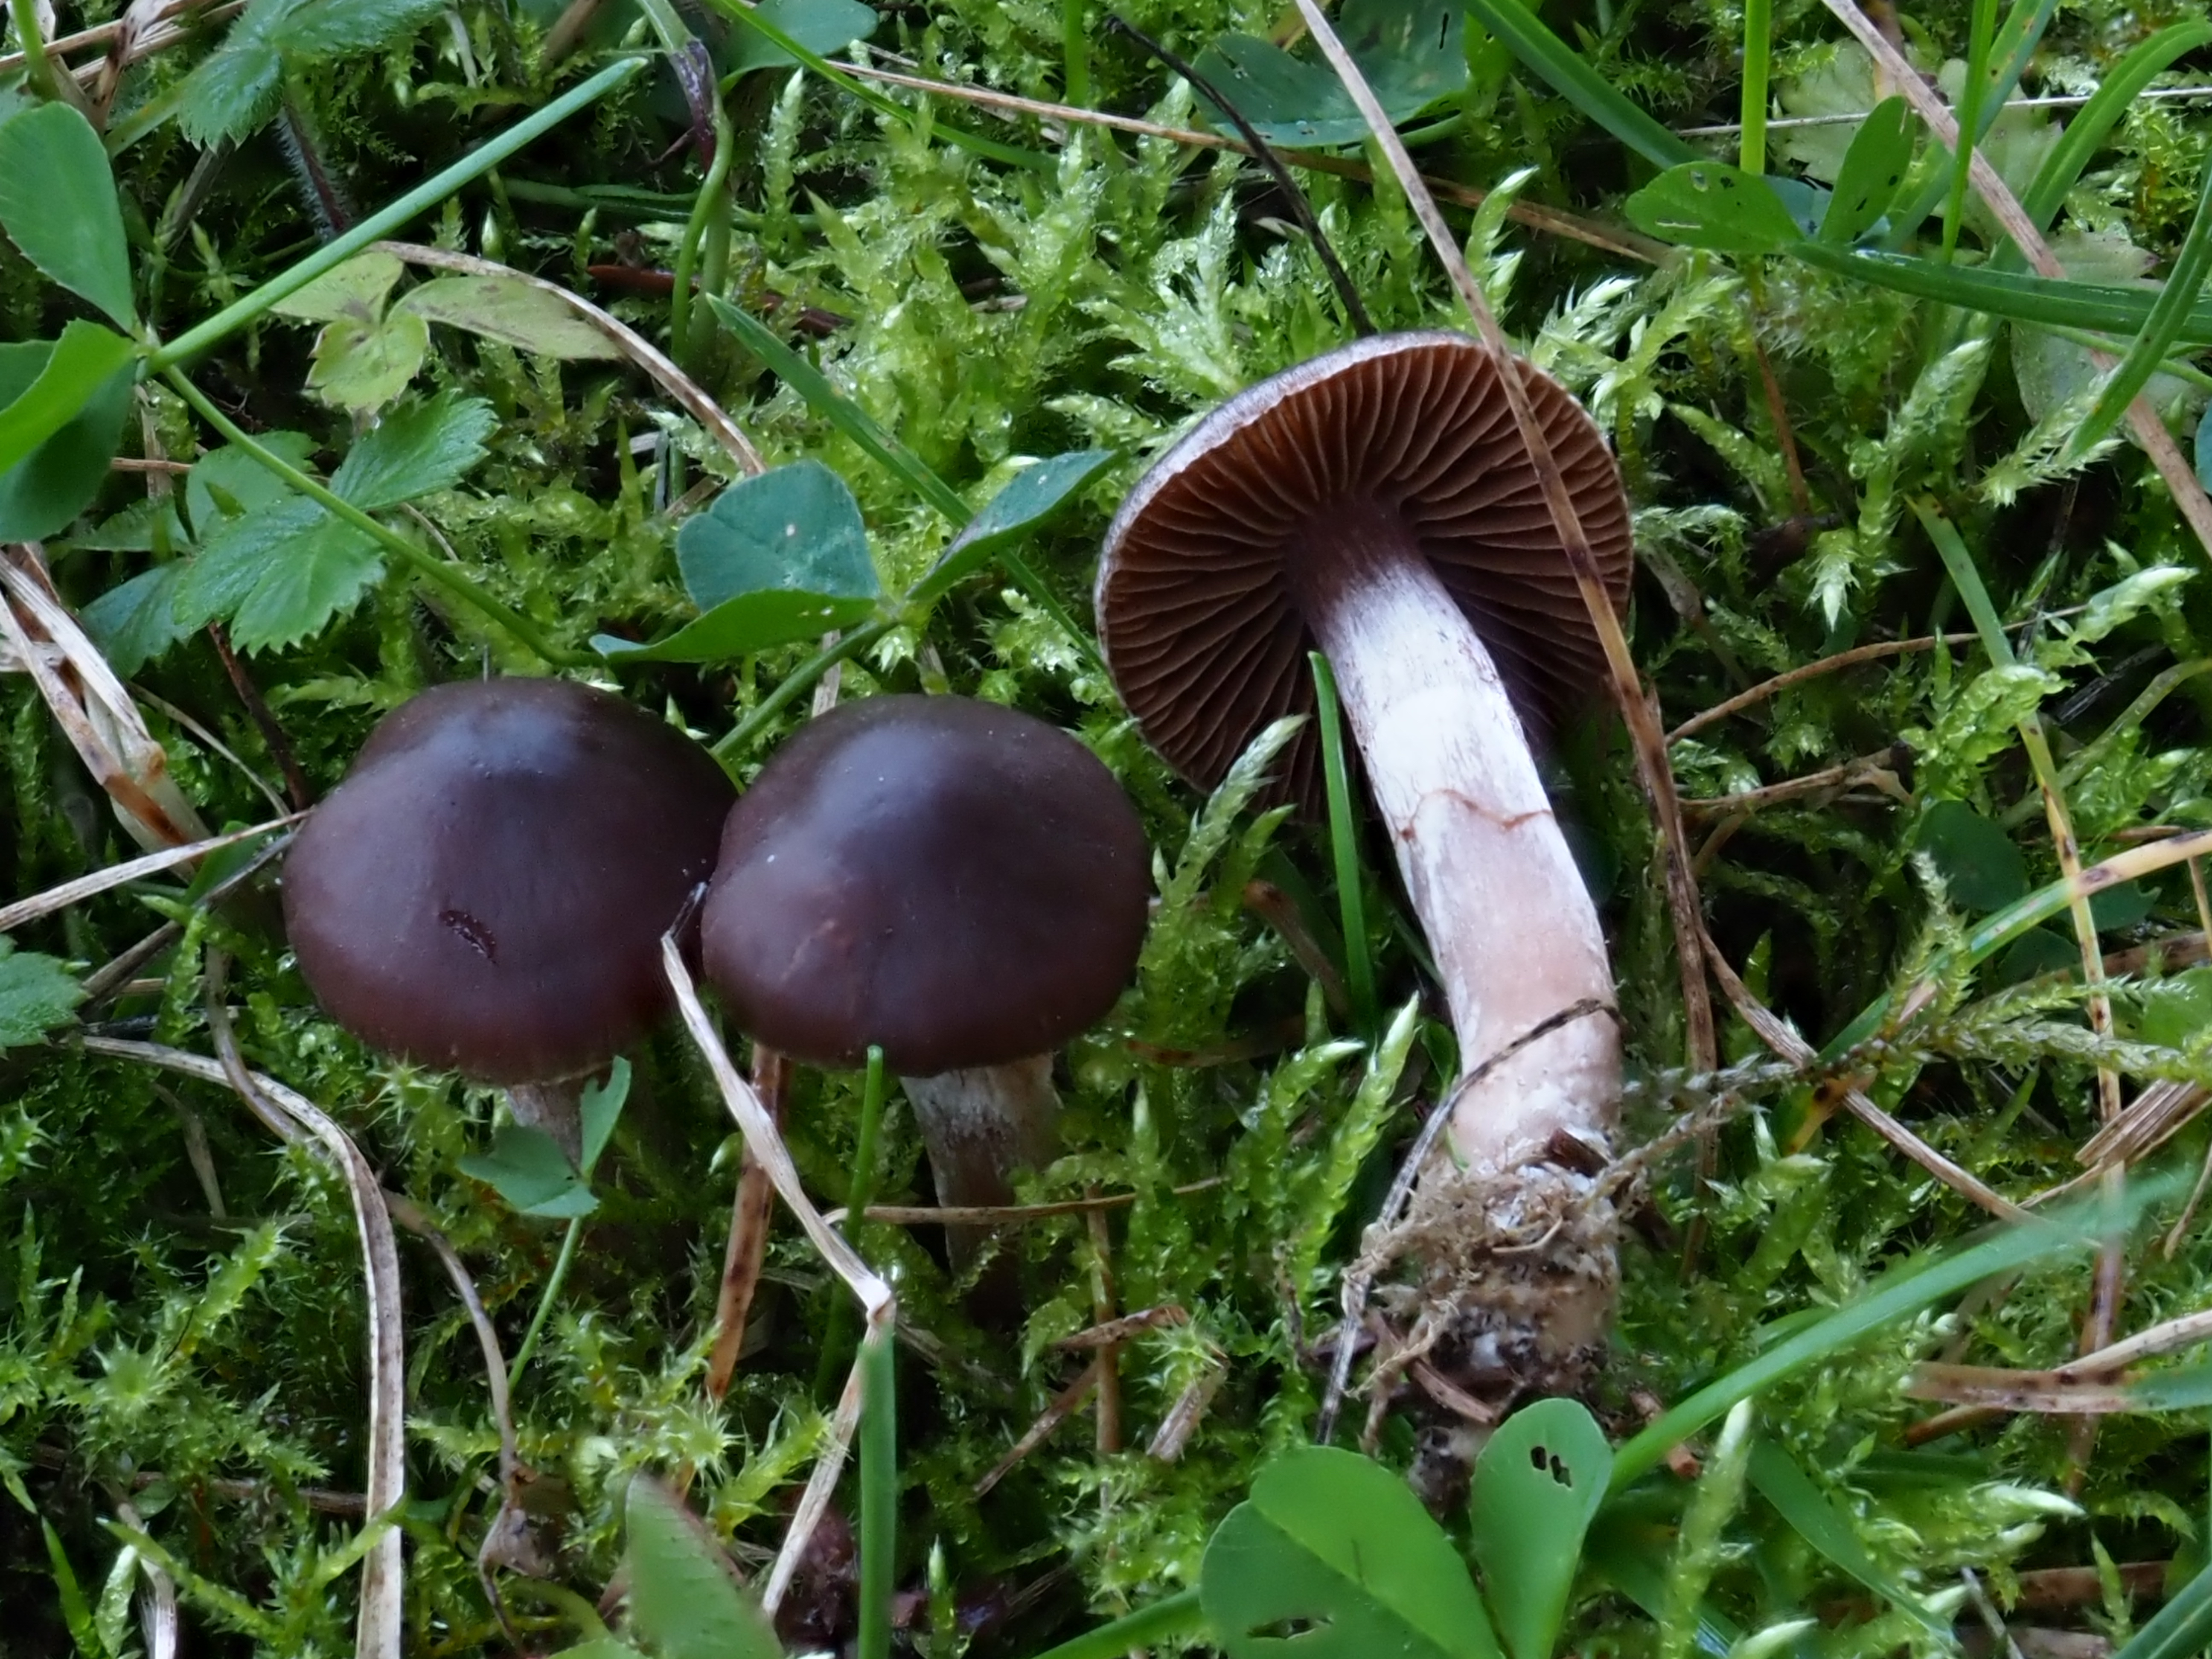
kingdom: Fungi
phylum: Basidiomycota
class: Agaricomycetes
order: Agaricales
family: Cortinariaceae
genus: Cortinarius
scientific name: Cortinarius
